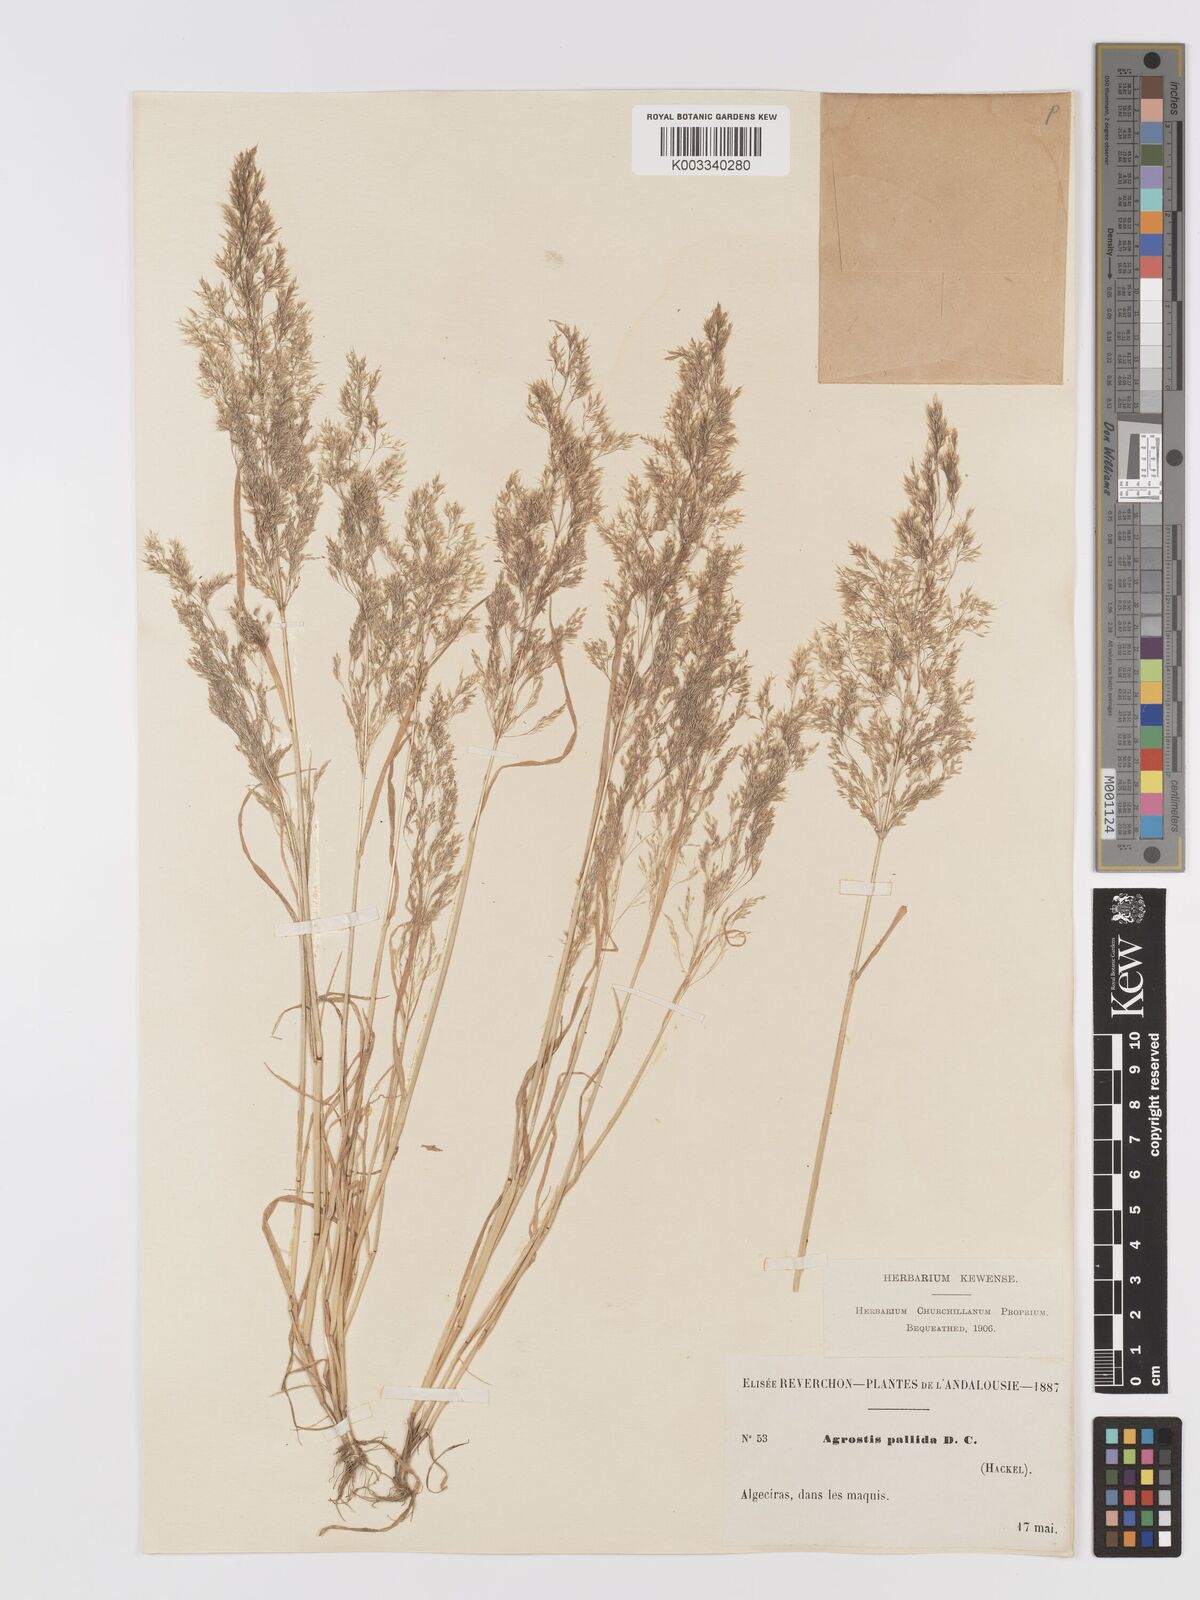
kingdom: Plantae
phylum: Tracheophyta
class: Liliopsida
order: Poales
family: Poaceae
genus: Agrostis
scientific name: Agrostis pourretii
